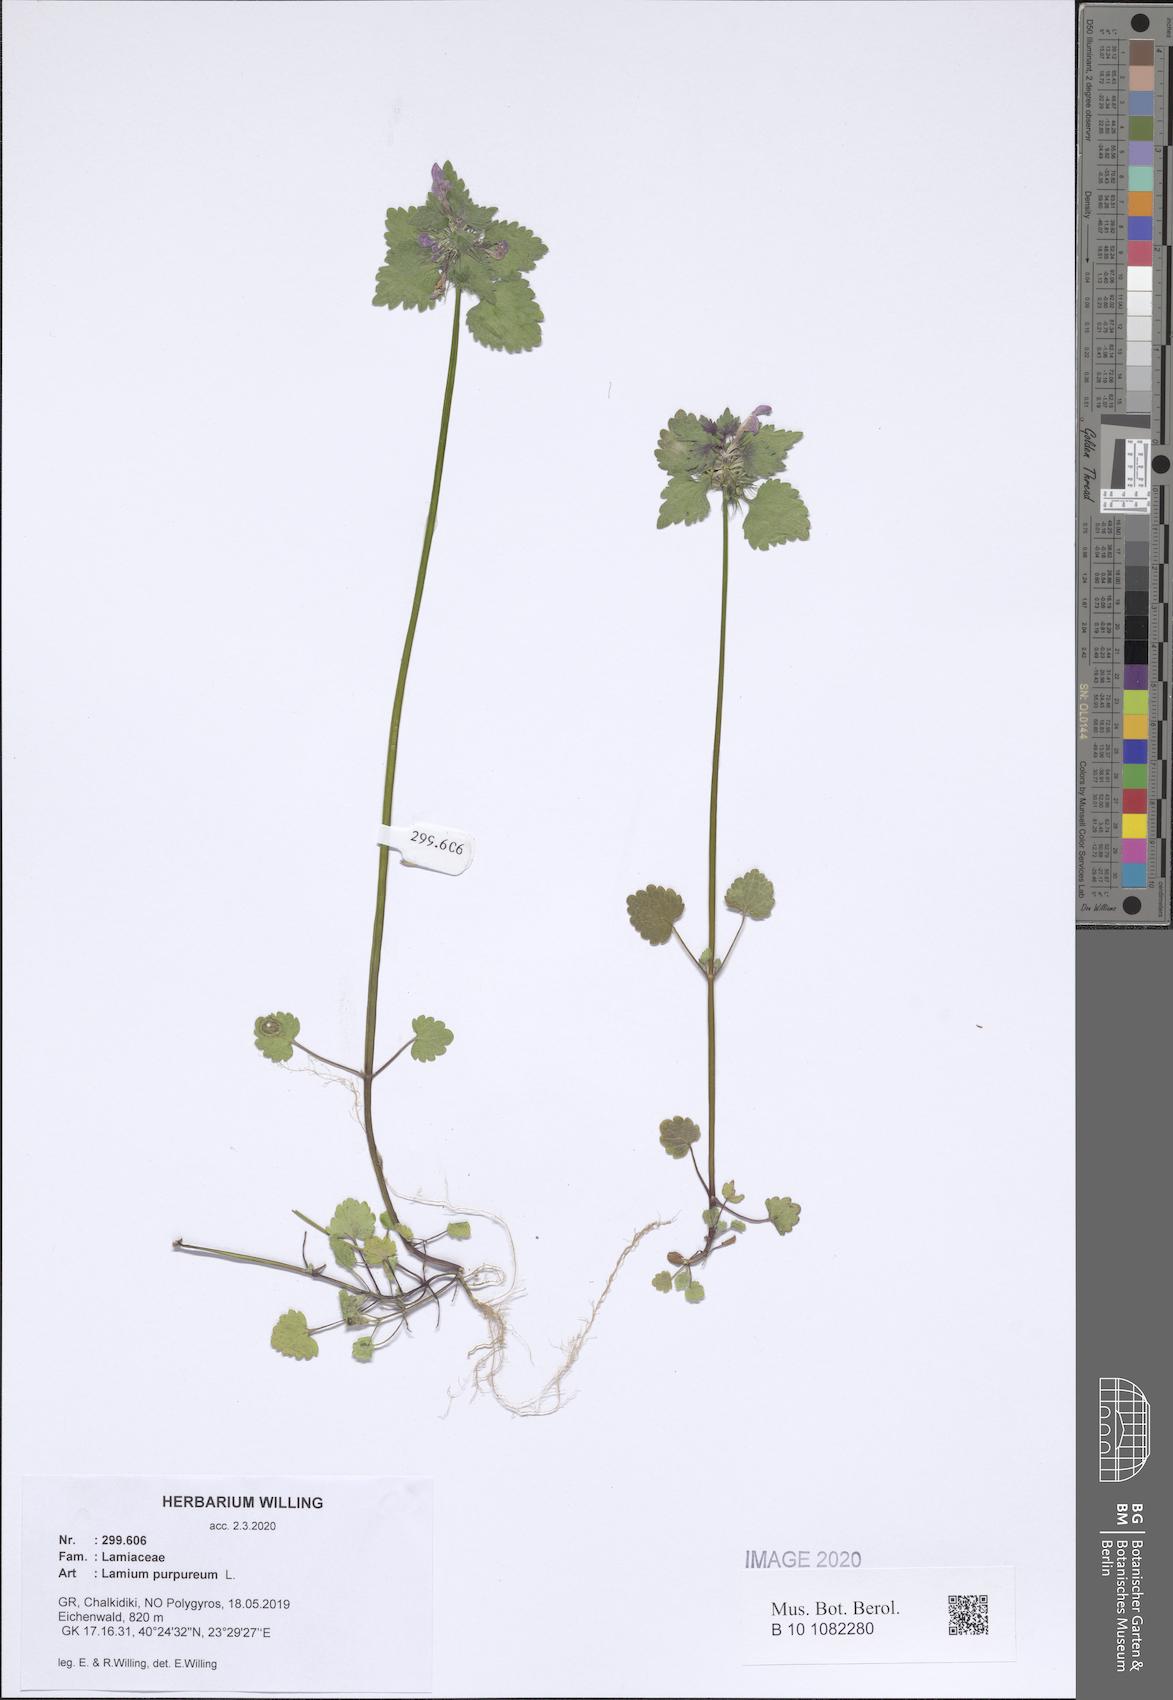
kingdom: Plantae
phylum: Tracheophyta
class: Magnoliopsida
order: Lamiales
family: Lamiaceae
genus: Lamium
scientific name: Lamium purpureum
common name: Red dead-nettle
